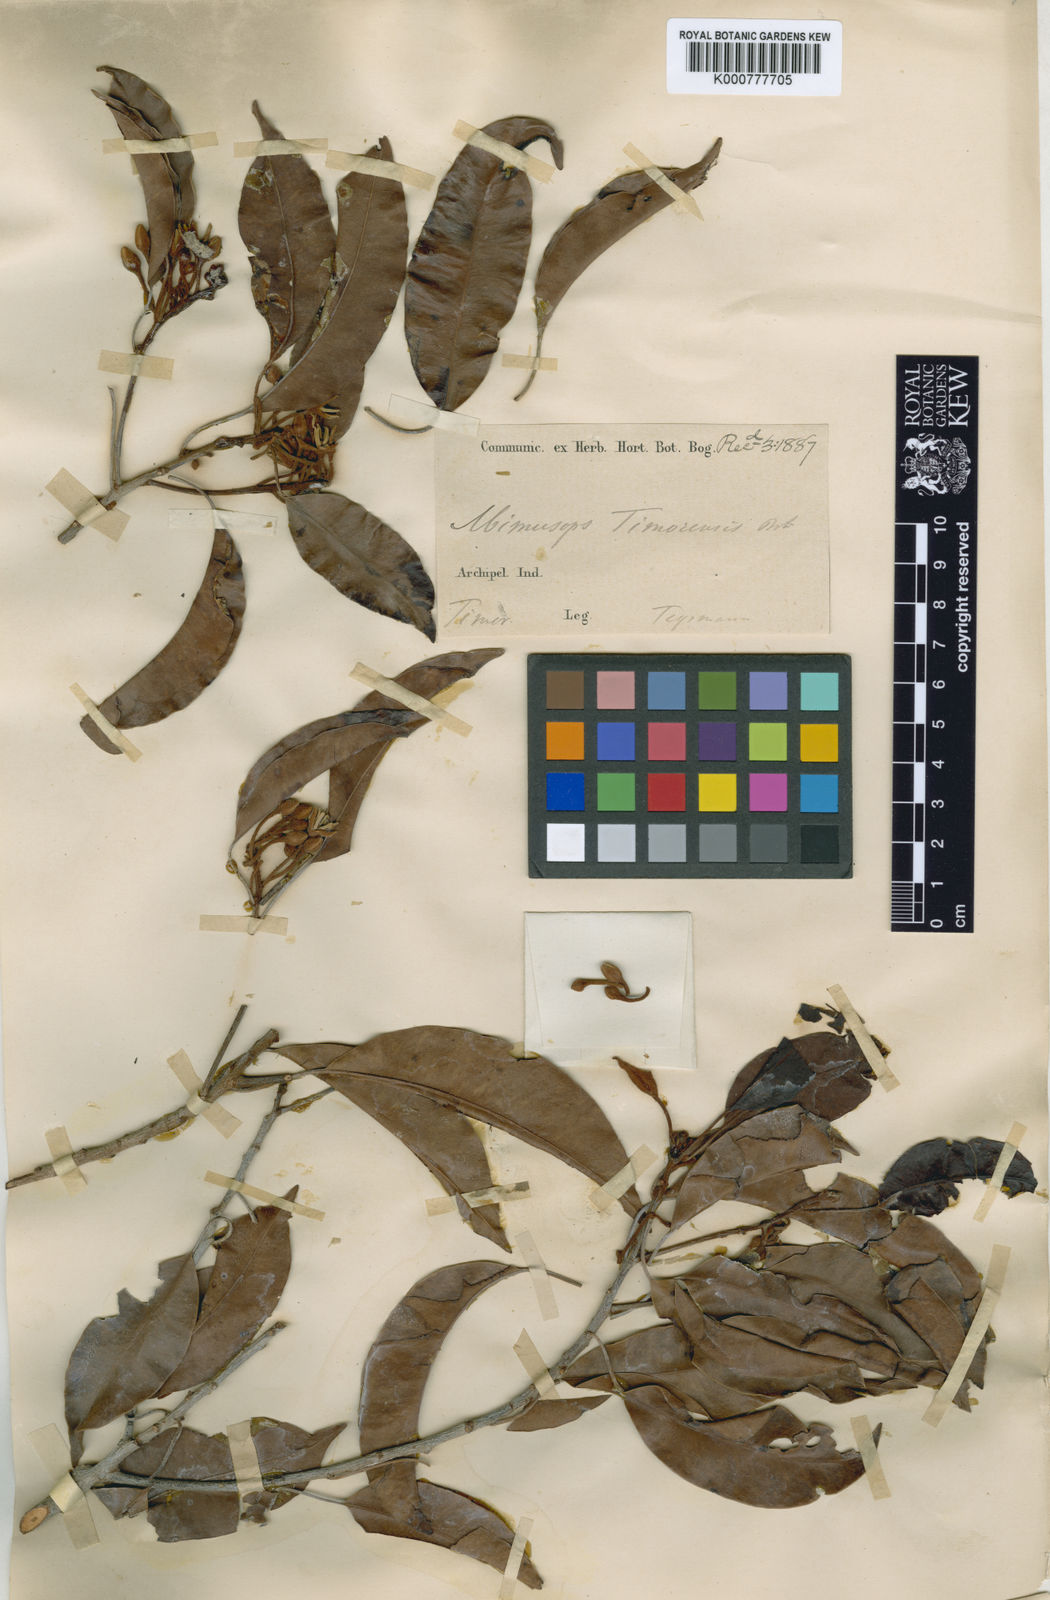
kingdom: Plantae
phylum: Tracheophyta
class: Magnoliopsida
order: Ericales
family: Sapotaceae
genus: Mimusops
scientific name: Mimusops elengi
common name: Spanish cherry
